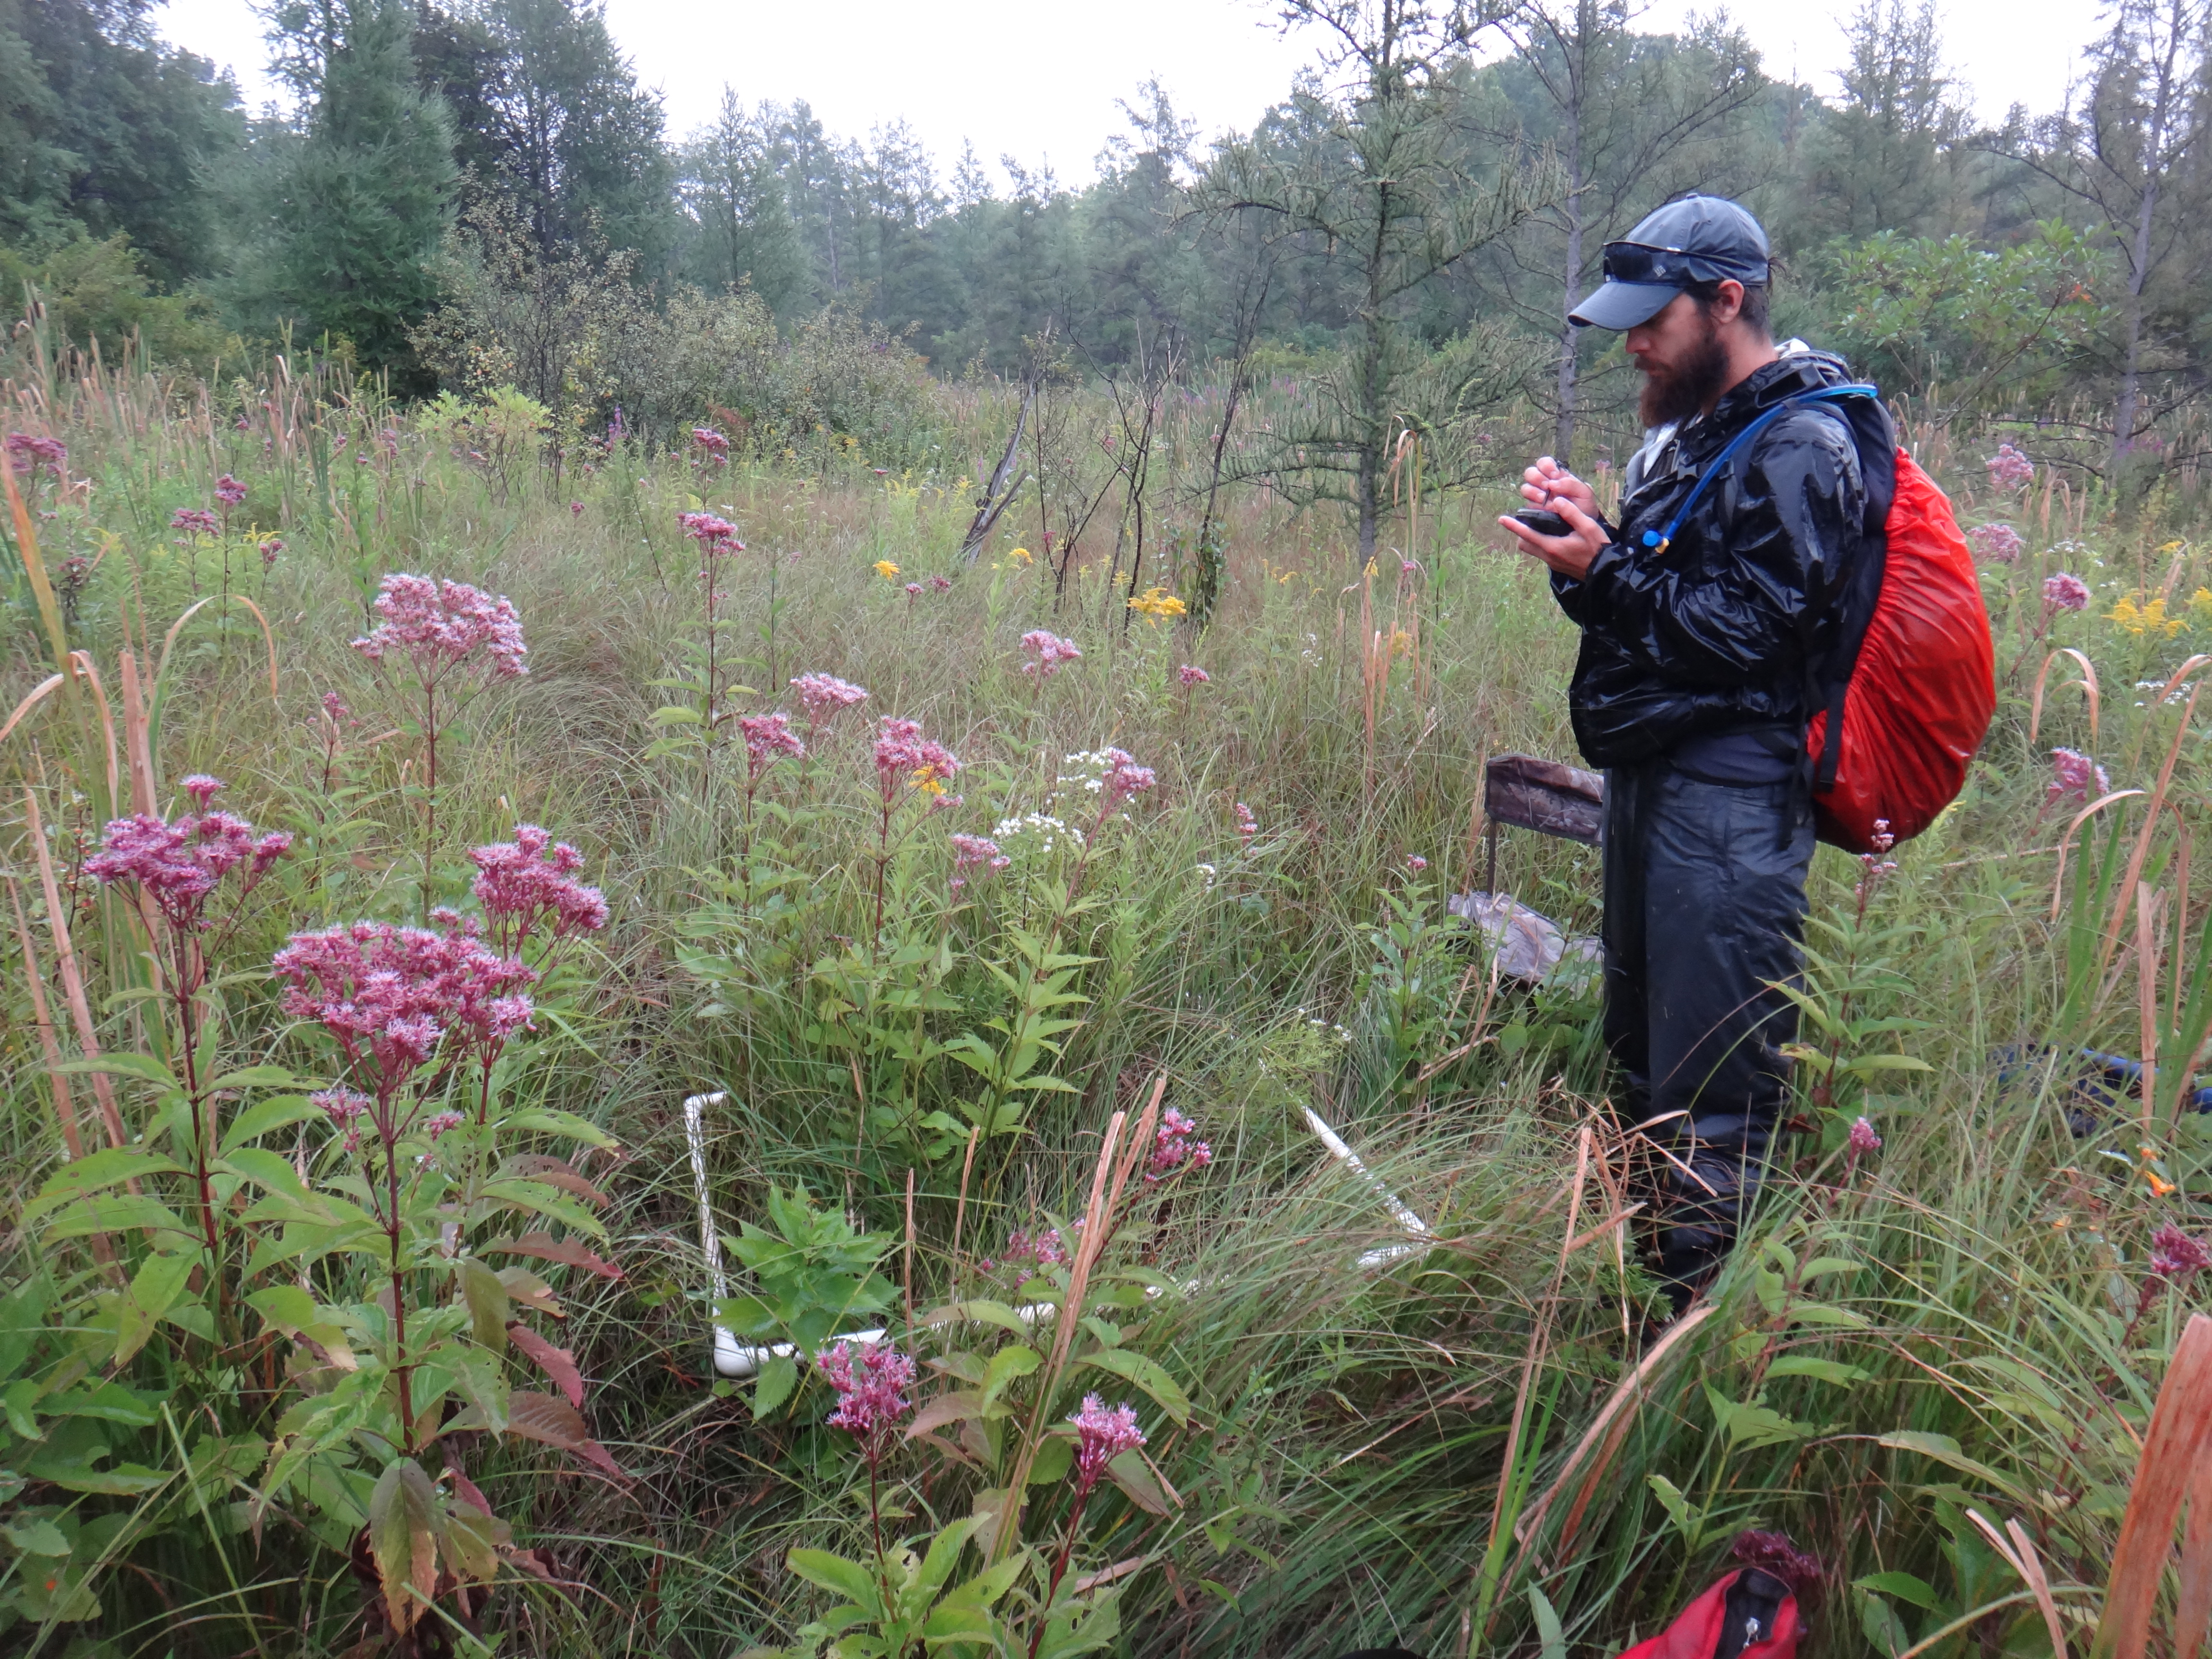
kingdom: Plantae
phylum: Tracheophyta
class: Liliopsida
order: Poales
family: Poaceae
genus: Glyceria
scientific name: Glyceria striata
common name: Fowl manna grass
